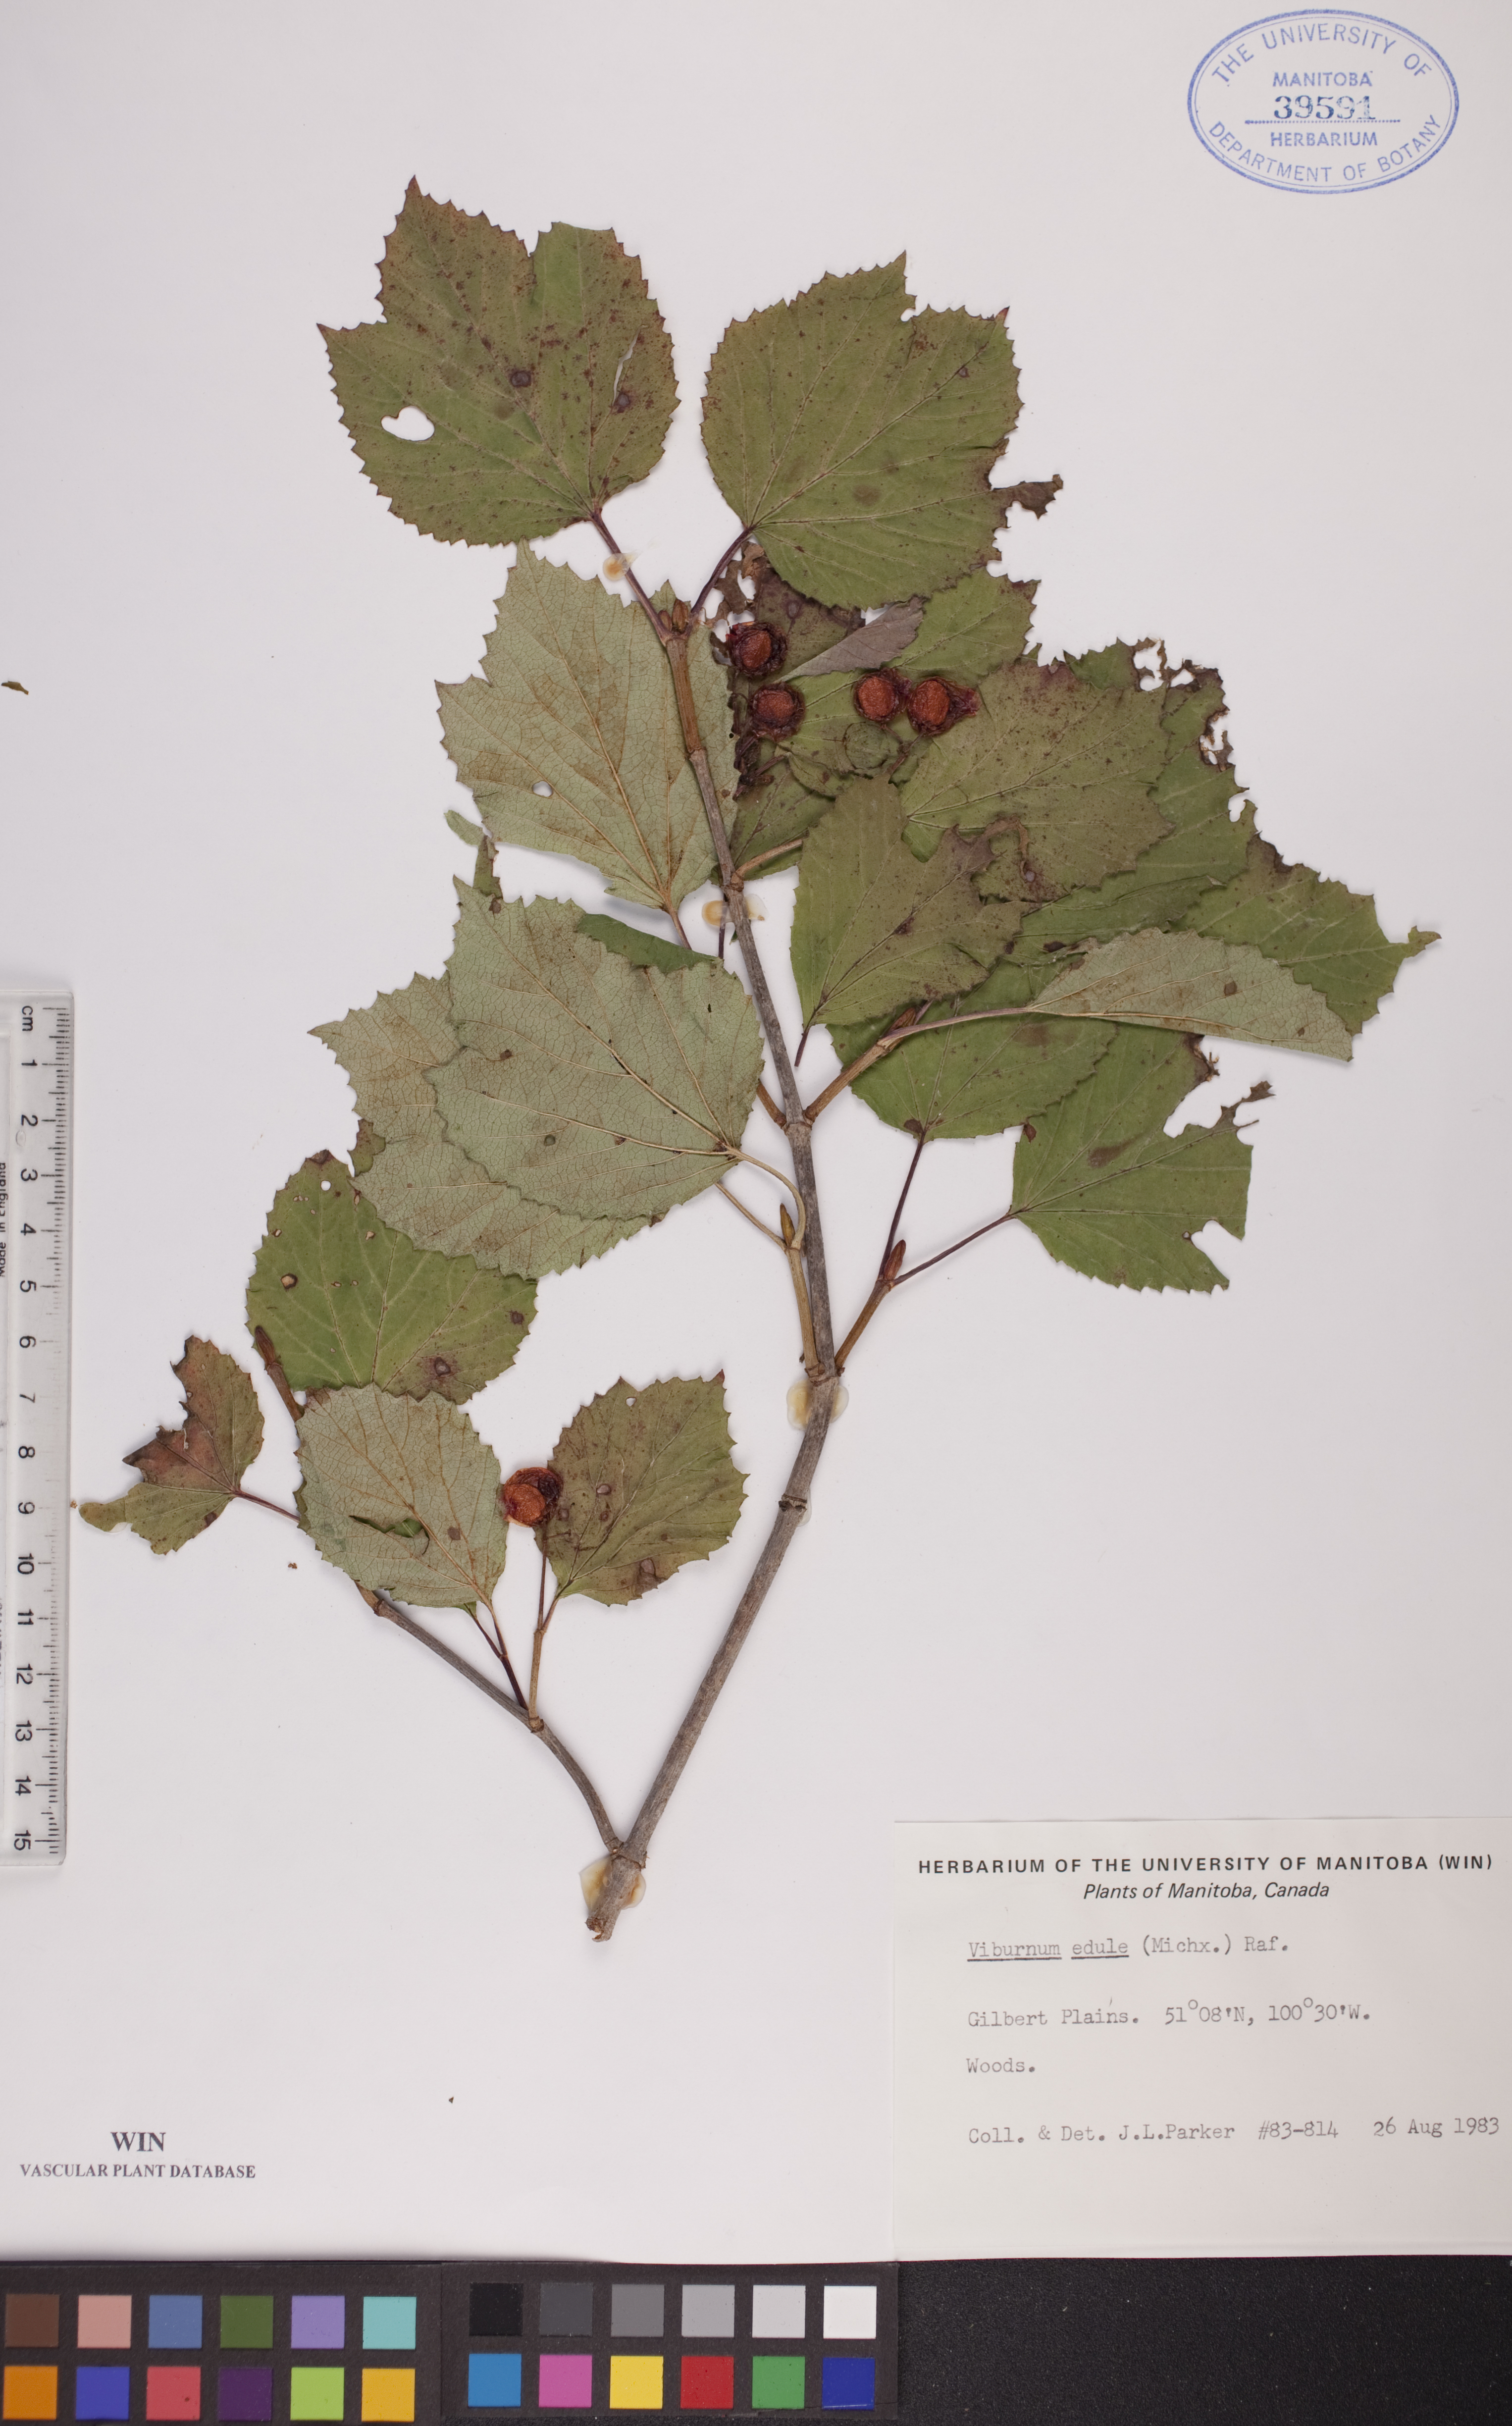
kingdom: Plantae
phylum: Tracheophyta
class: Magnoliopsida
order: Dipsacales
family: Viburnaceae
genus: Viburnum
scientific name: Viburnum edule
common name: Mooseberry
